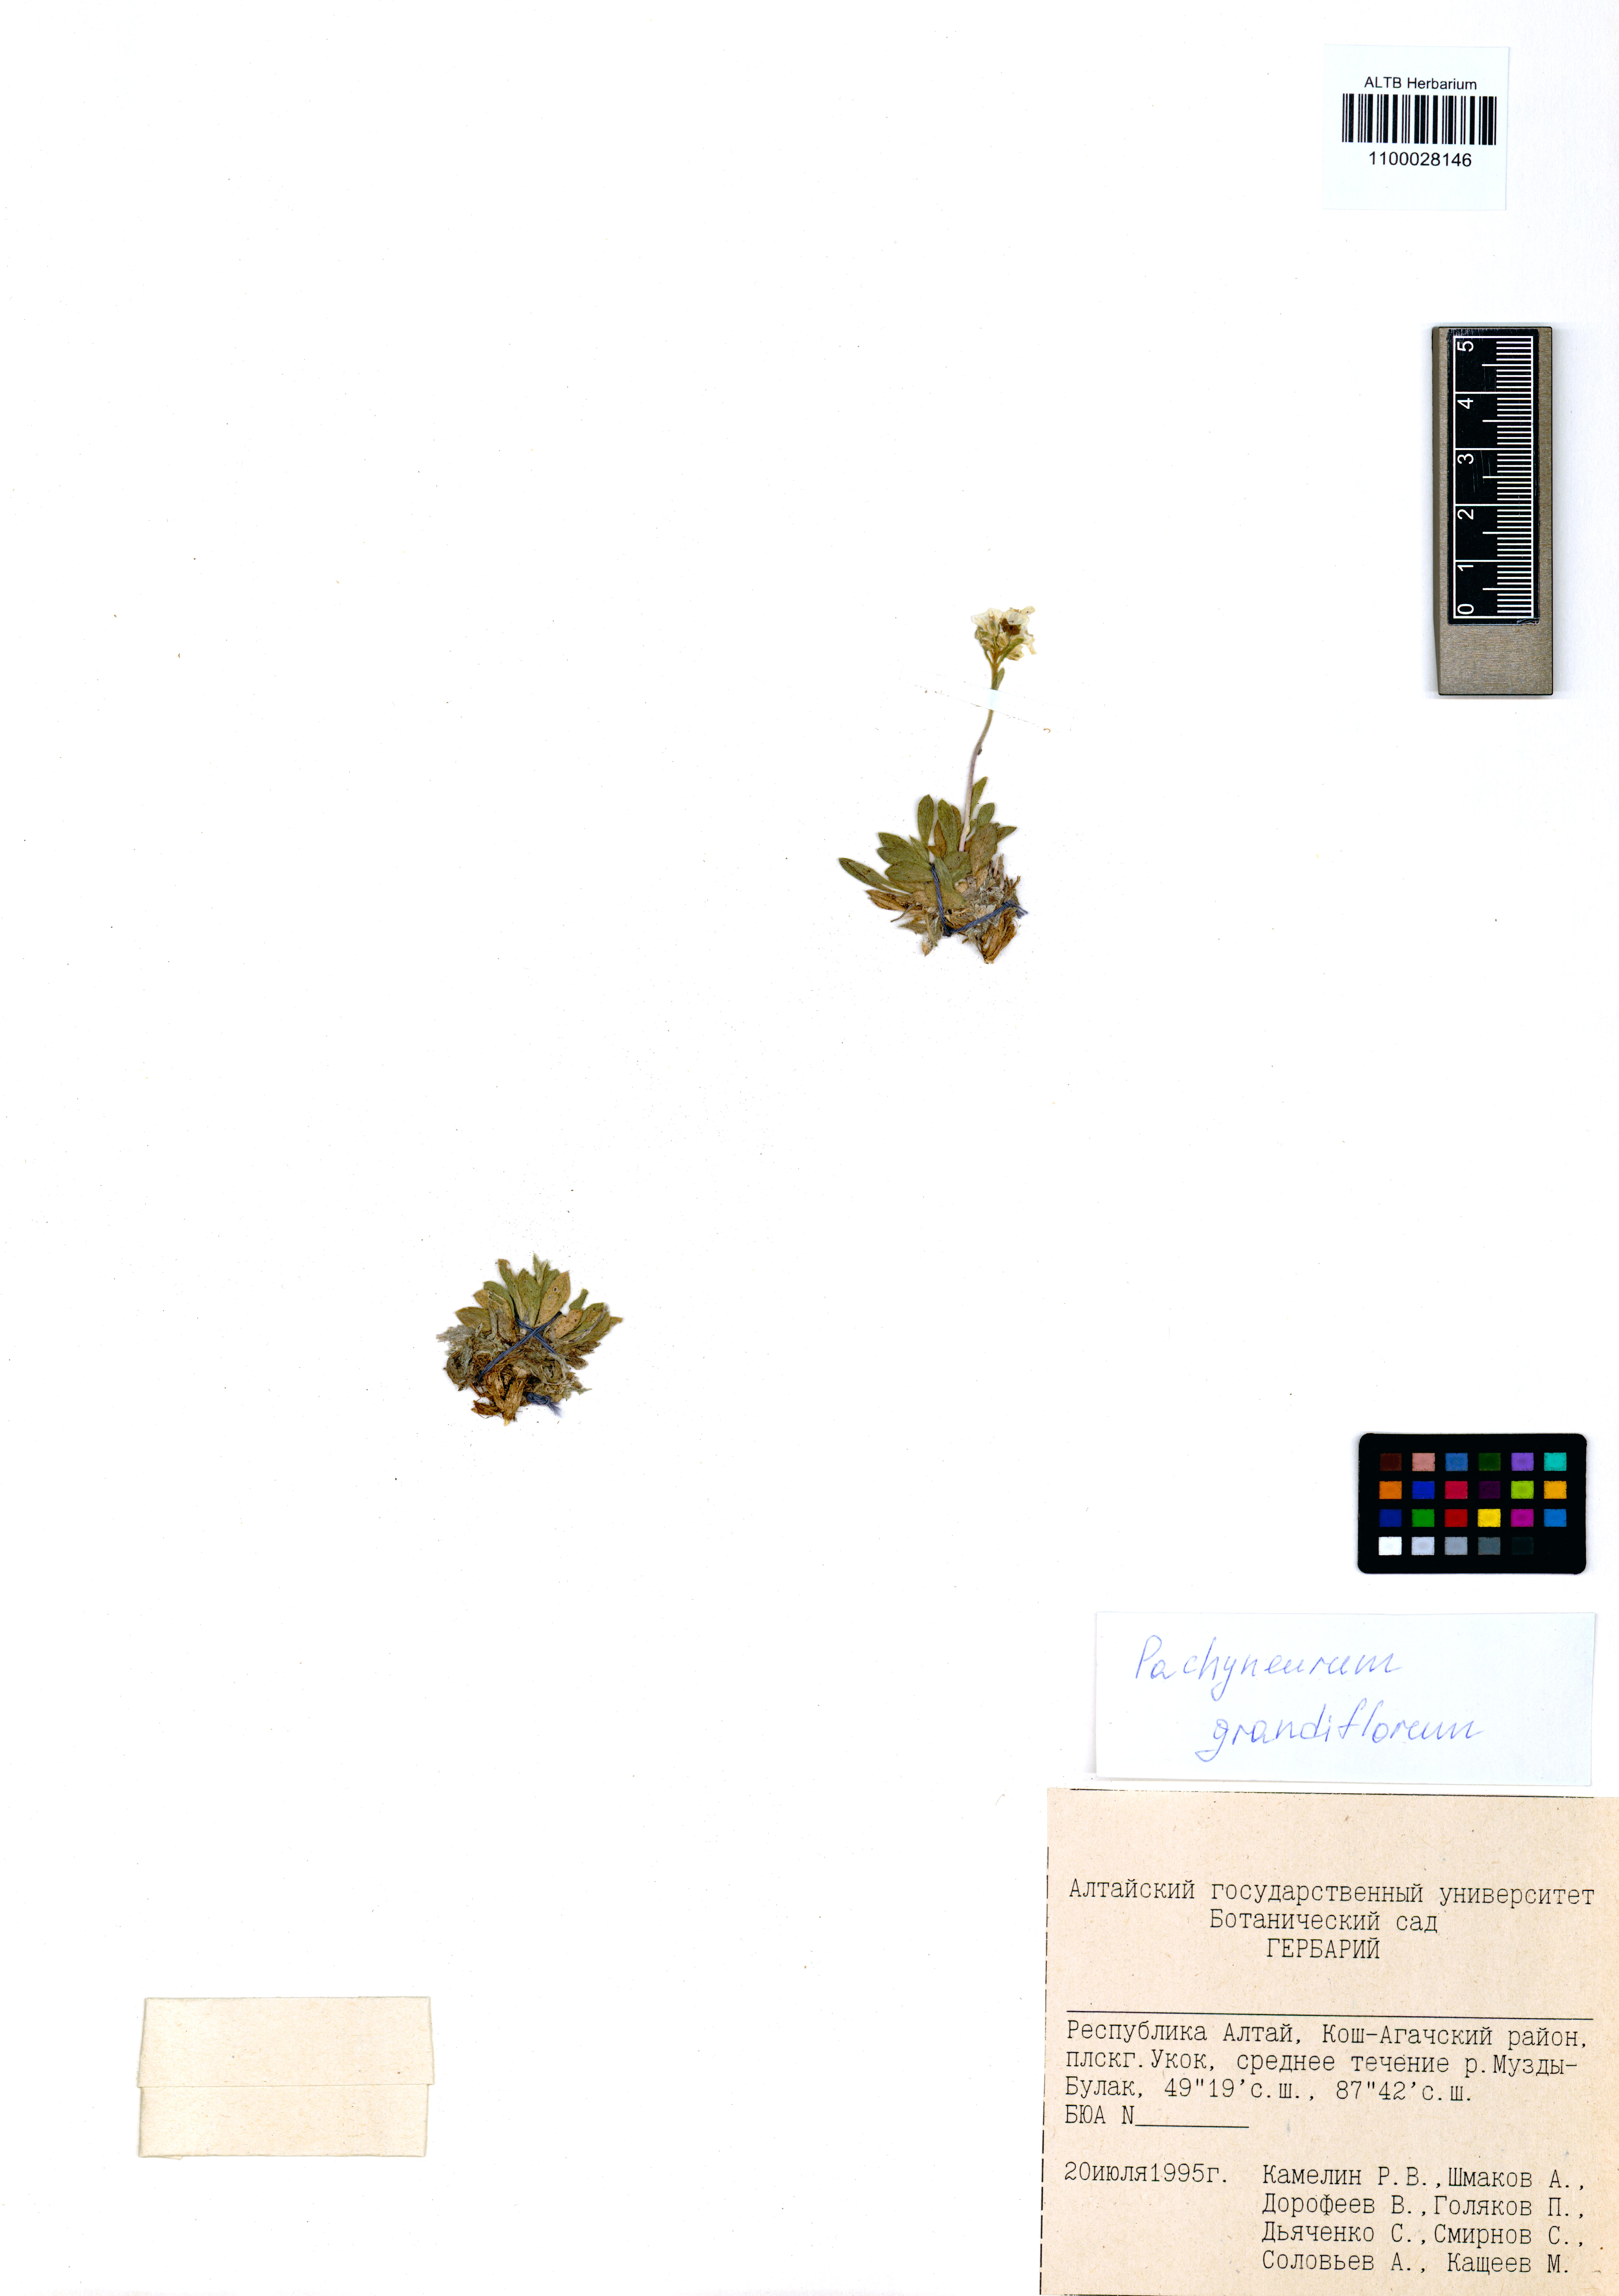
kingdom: Plantae
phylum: Tracheophyta
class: Magnoliopsida
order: Brassicales
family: Brassicaceae
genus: Pachyneurum
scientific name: Pachyneurum grandiflorum
